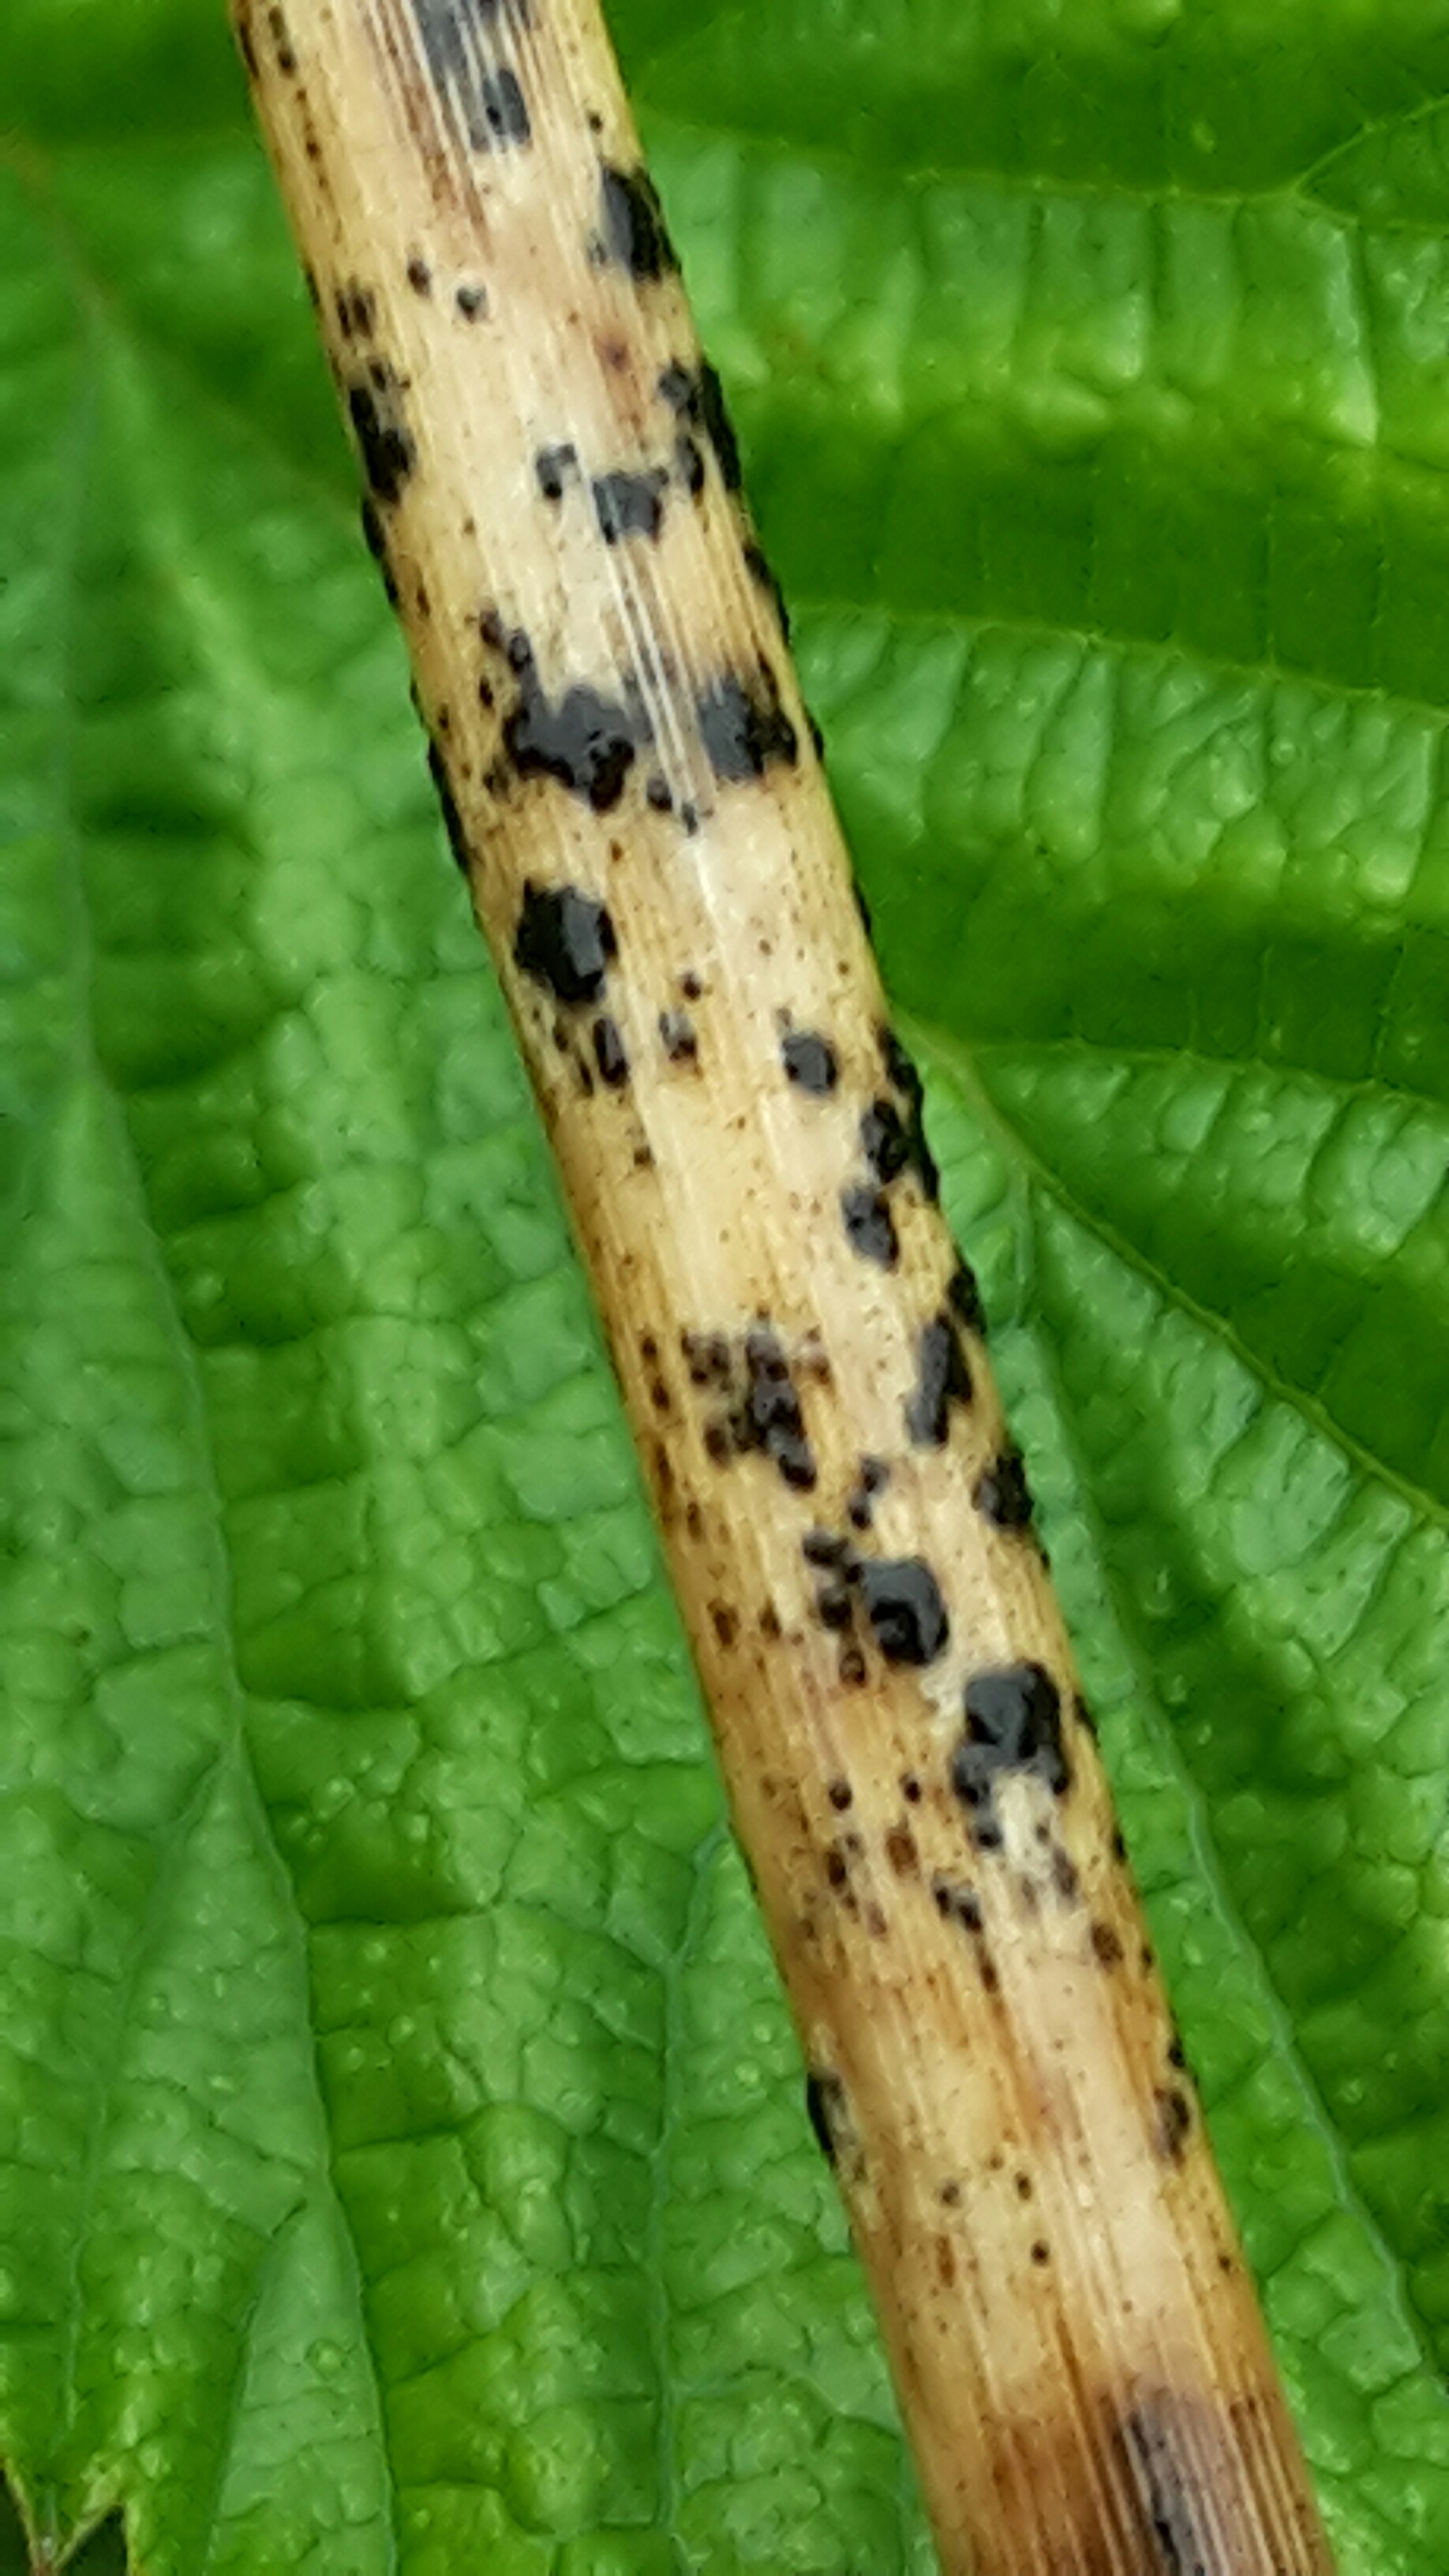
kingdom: Fungi
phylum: Ascomycota
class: Sordariomycetes
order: Phyllachorales
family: Phyllachoraceae
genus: Phyllachora
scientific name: Phyllachora junci
